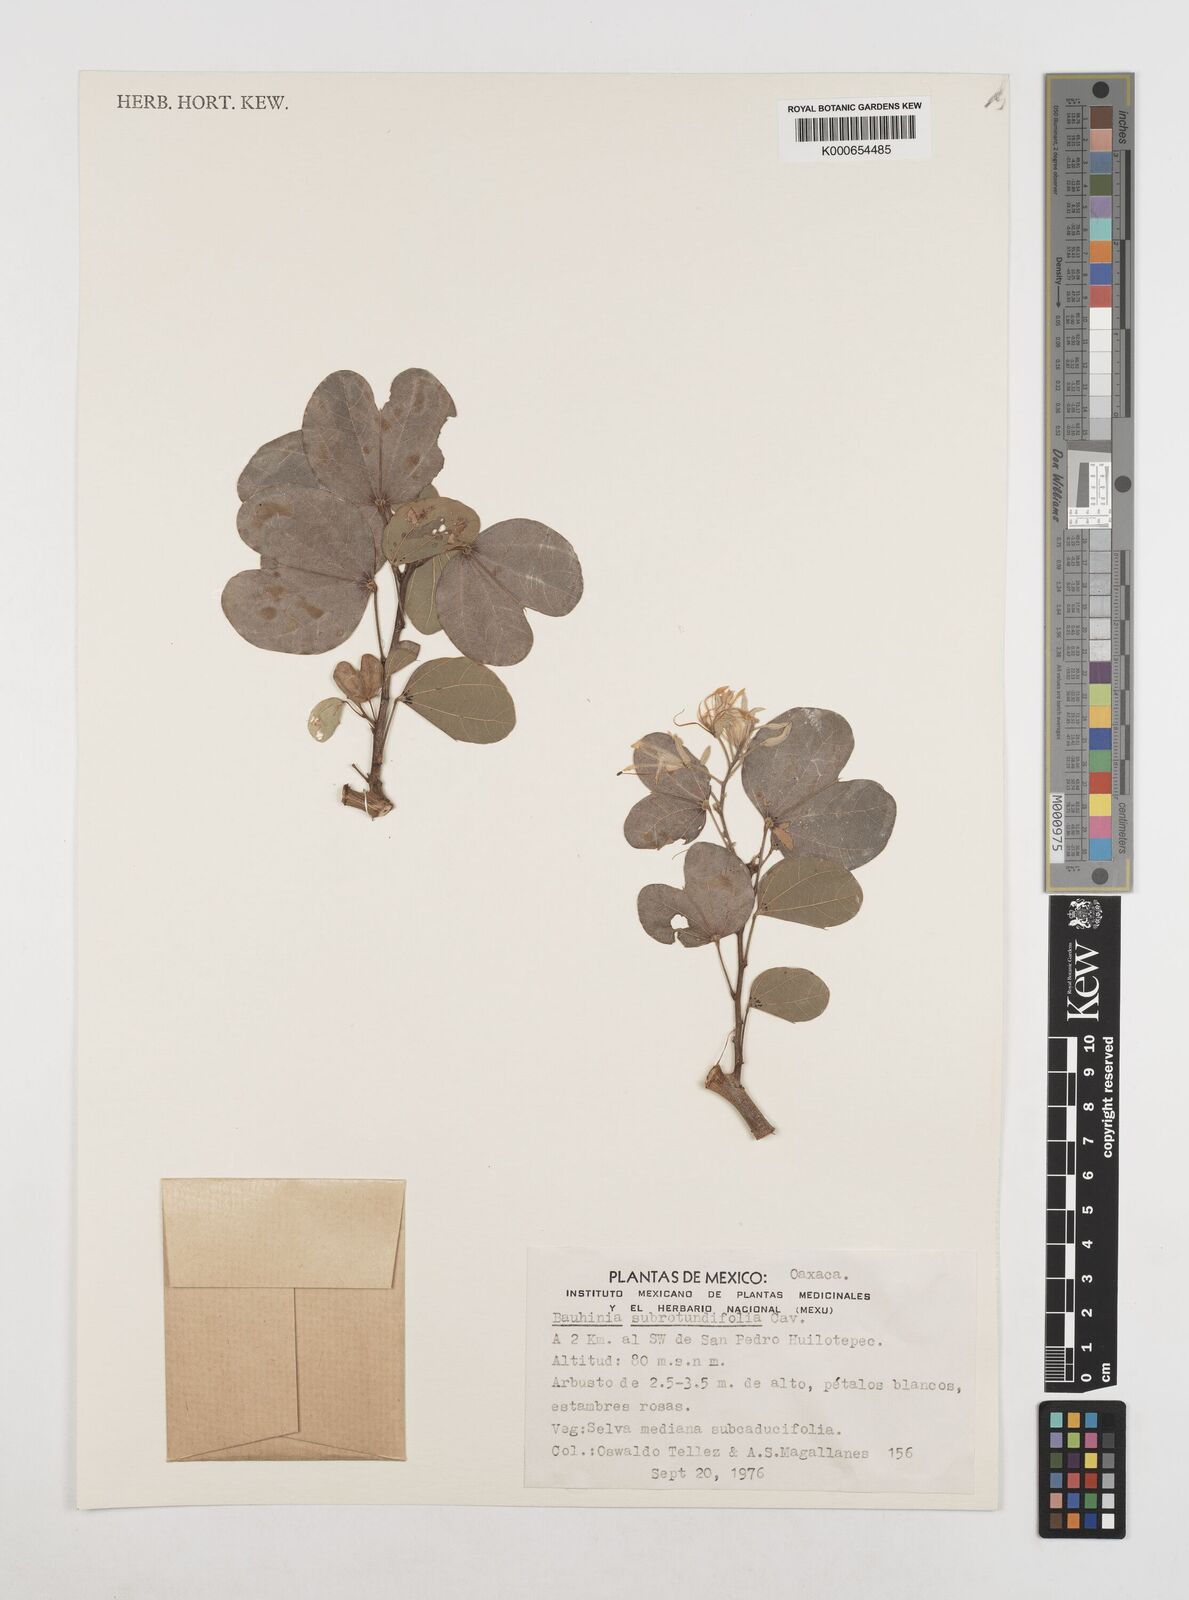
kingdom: Plantae
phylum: Tracheophyta
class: Magnoliopsida
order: Fabales
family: Fabaceae
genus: Bauhinia
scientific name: Bauhinia subrotundifolia
